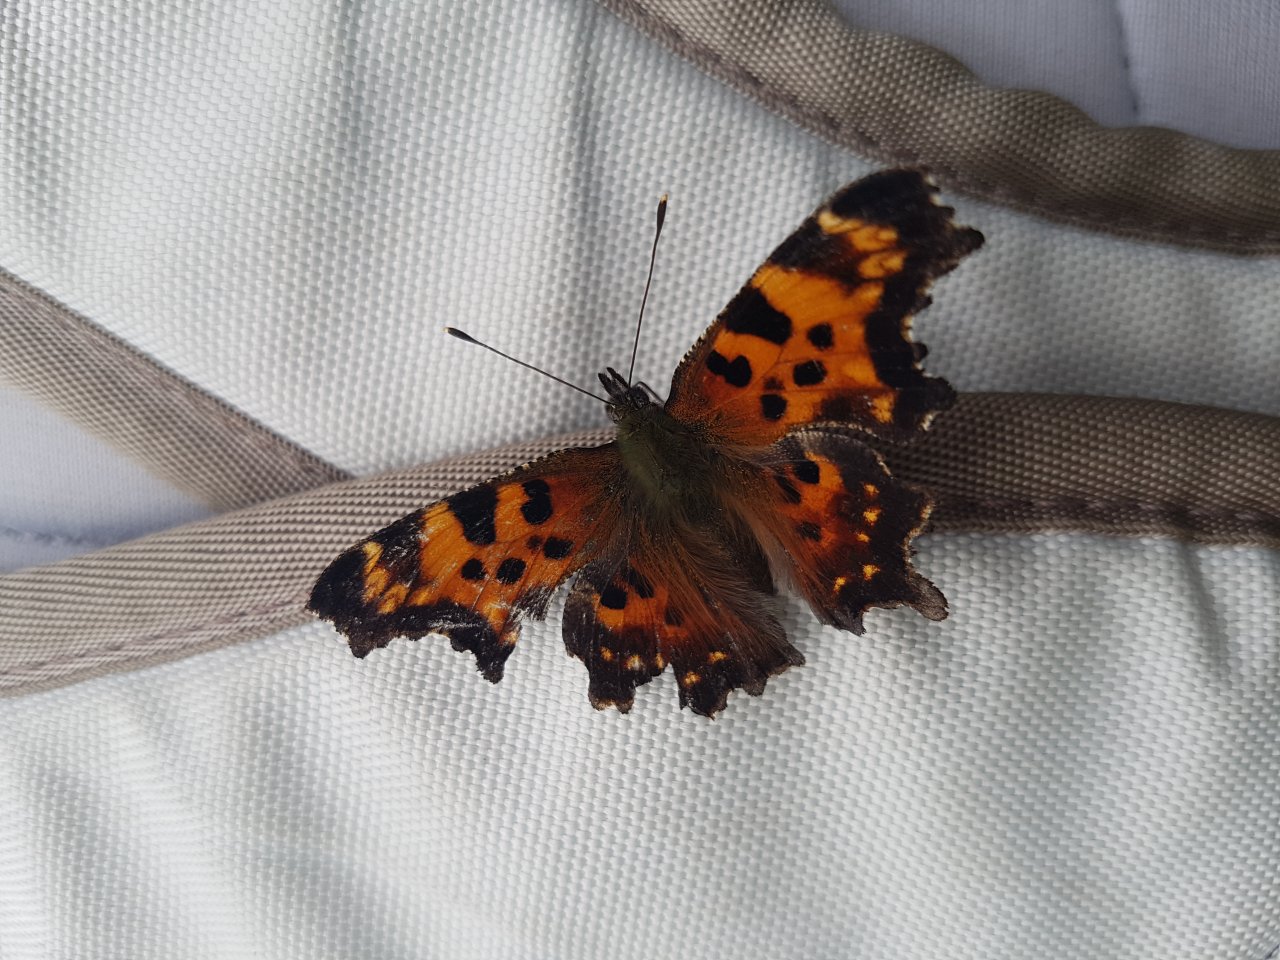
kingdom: Animalia
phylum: Arthropoda
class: Insecta
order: Lepidoptera
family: Nymphalidae
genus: Polygonia
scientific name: Polygonia faunus
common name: Green Comma
